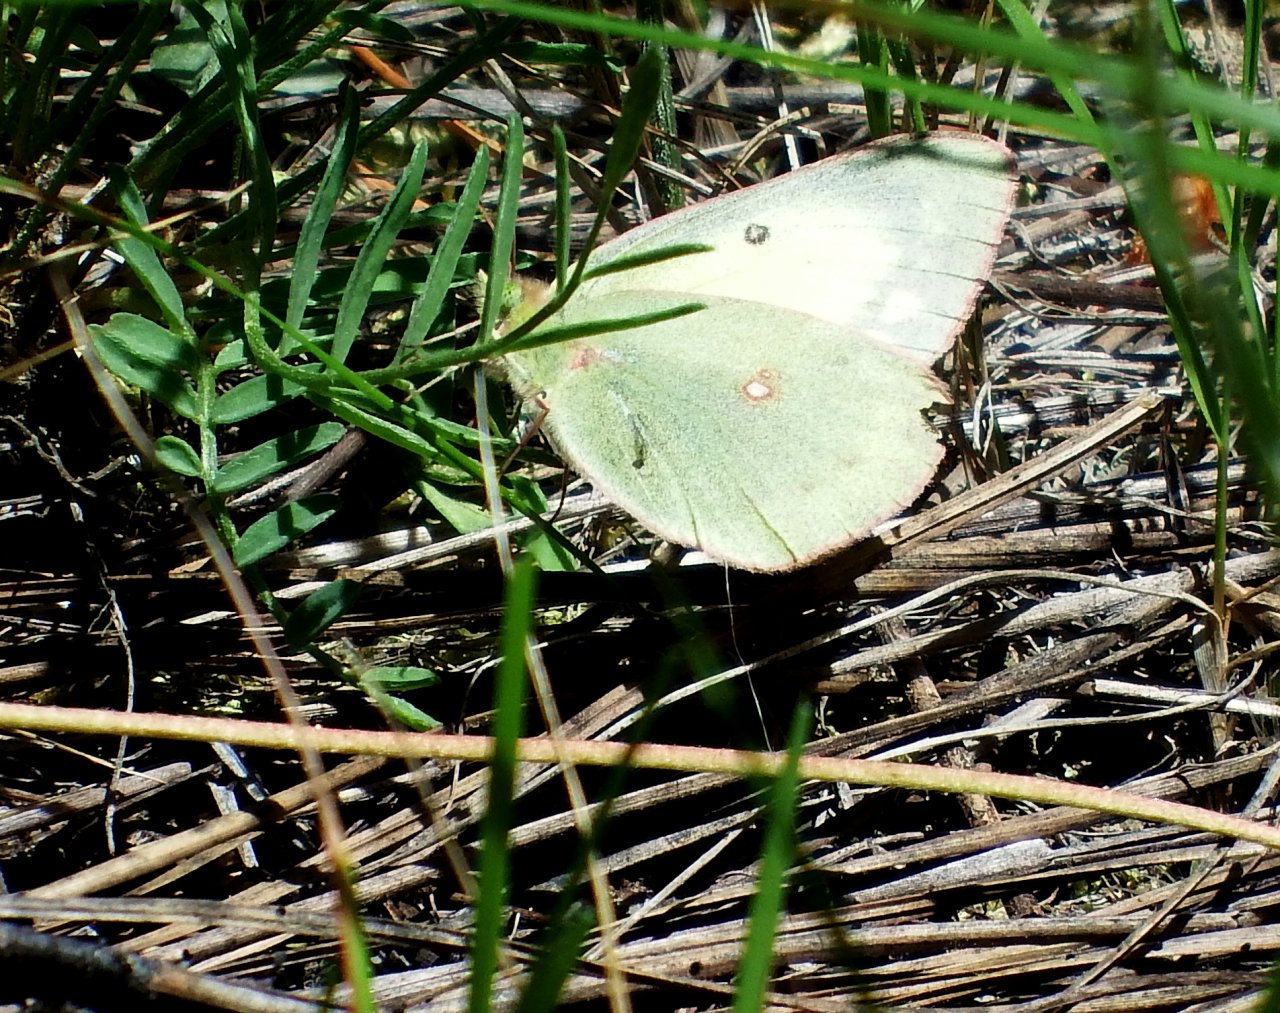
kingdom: Animalia
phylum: Arthropoda
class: Insecta
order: Lepidoptera
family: Pieridae
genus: Colias
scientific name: Colias philodice
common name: Clouded Sulphur
